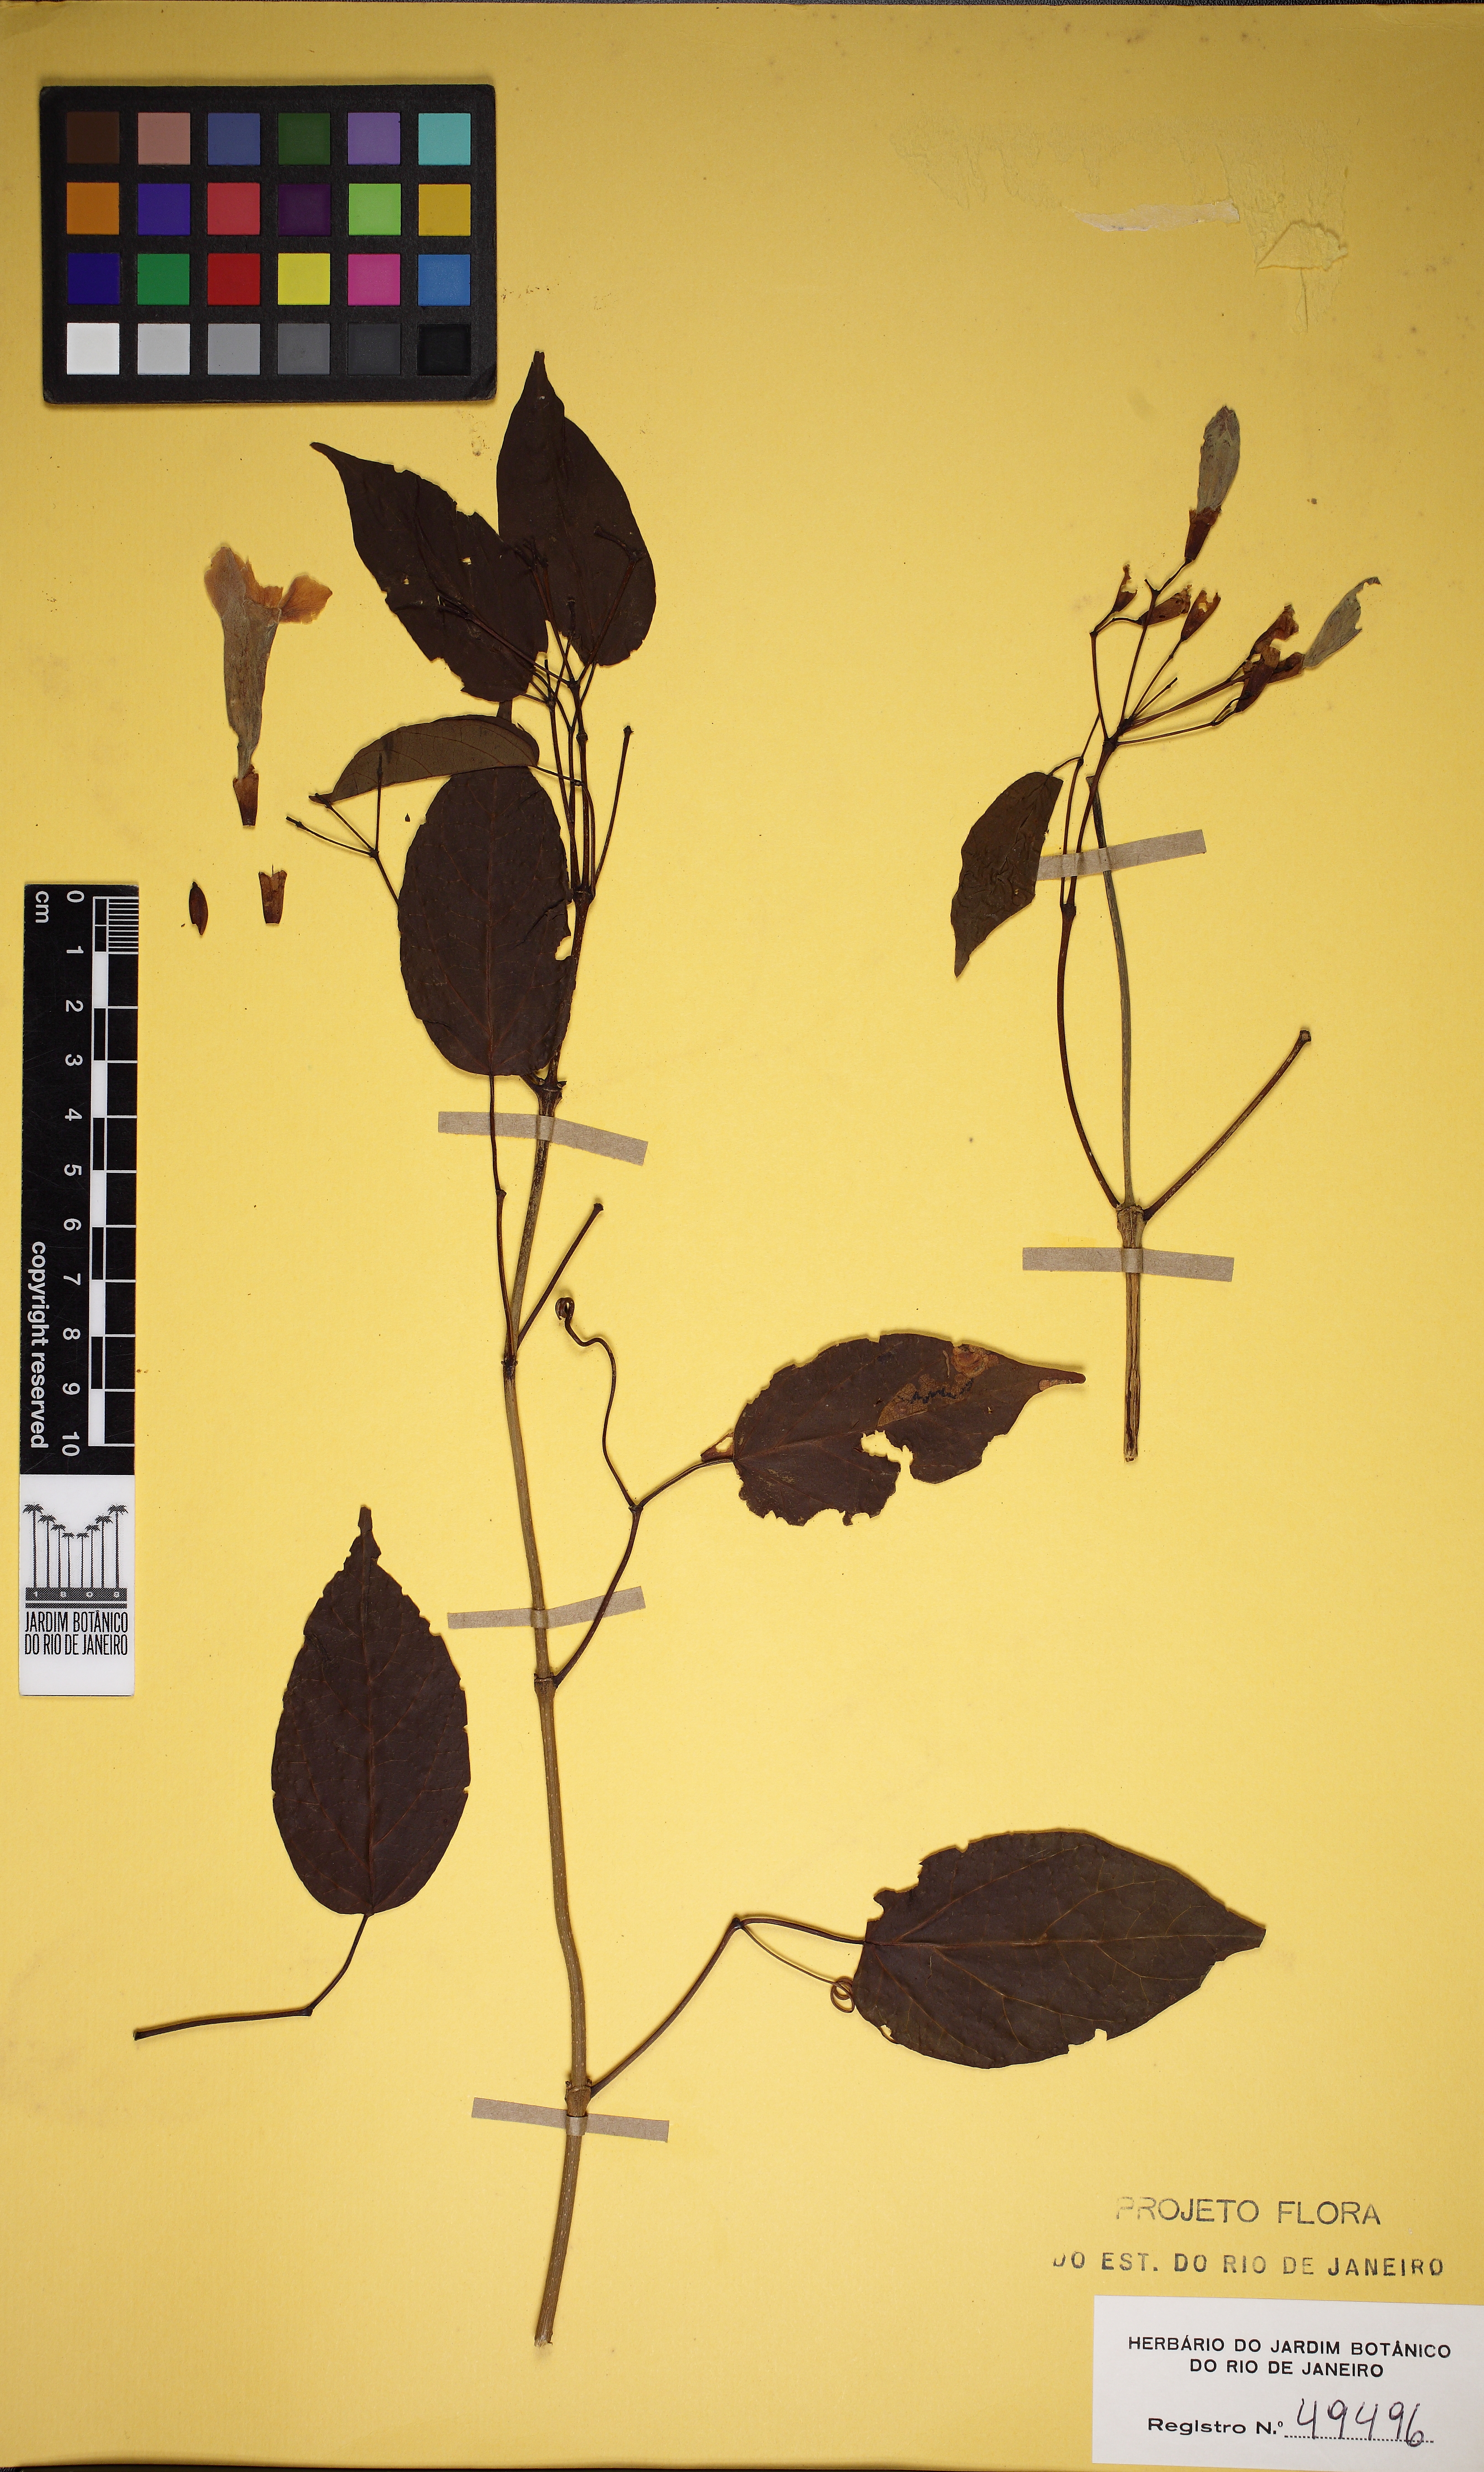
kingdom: Plantae
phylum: Tracheophyta
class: Magnoliopsida
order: Lamiales
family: Bignoniaceae
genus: Lundia
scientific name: Lundia damazioi
